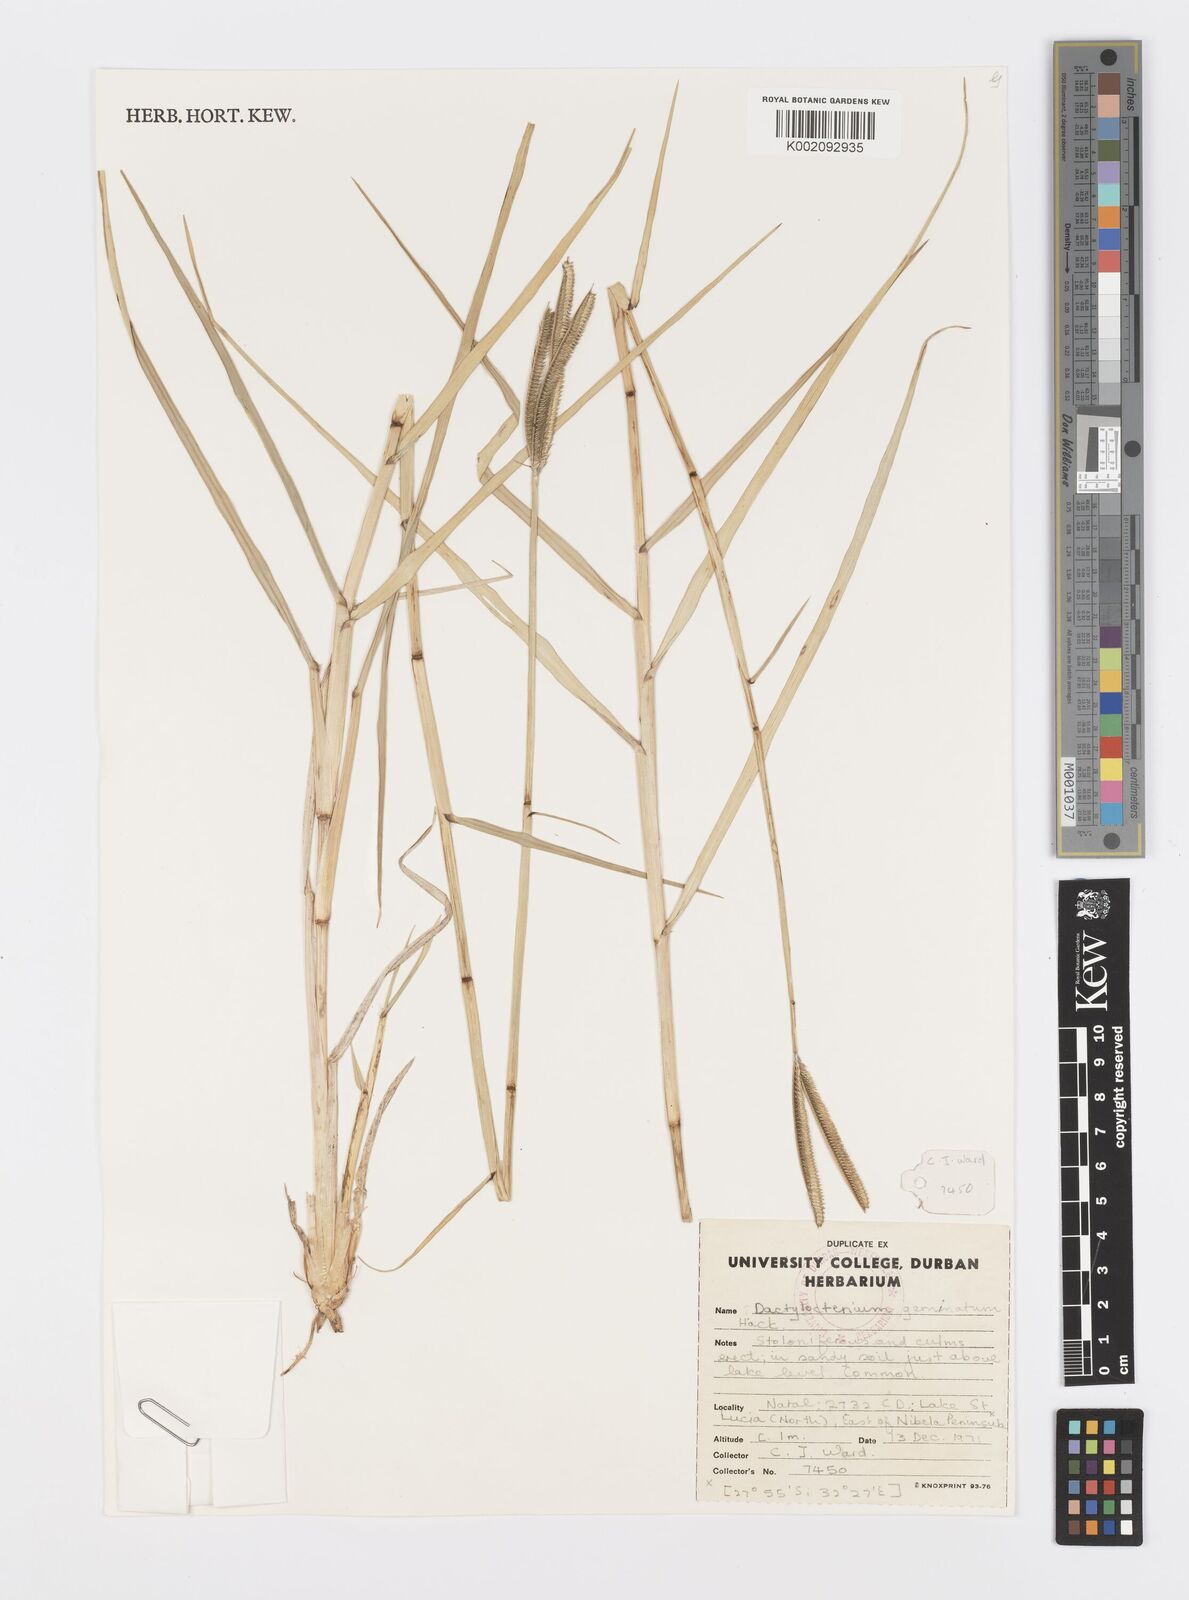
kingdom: Plantae
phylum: Tracheophyta
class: Liliopsida
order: Poales
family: Poaceae
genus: Dactyloctenium
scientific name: Dactyloctenium geminatum
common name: Crowsfoot grass
